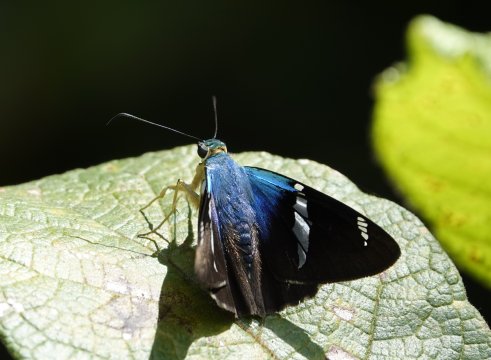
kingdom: Animalia
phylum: Arthropoda
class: Insecta
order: Lepidoptera
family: Hesperiidae
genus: Astraptes
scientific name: Astraptes fulgerator
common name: Two-barred Flasher
